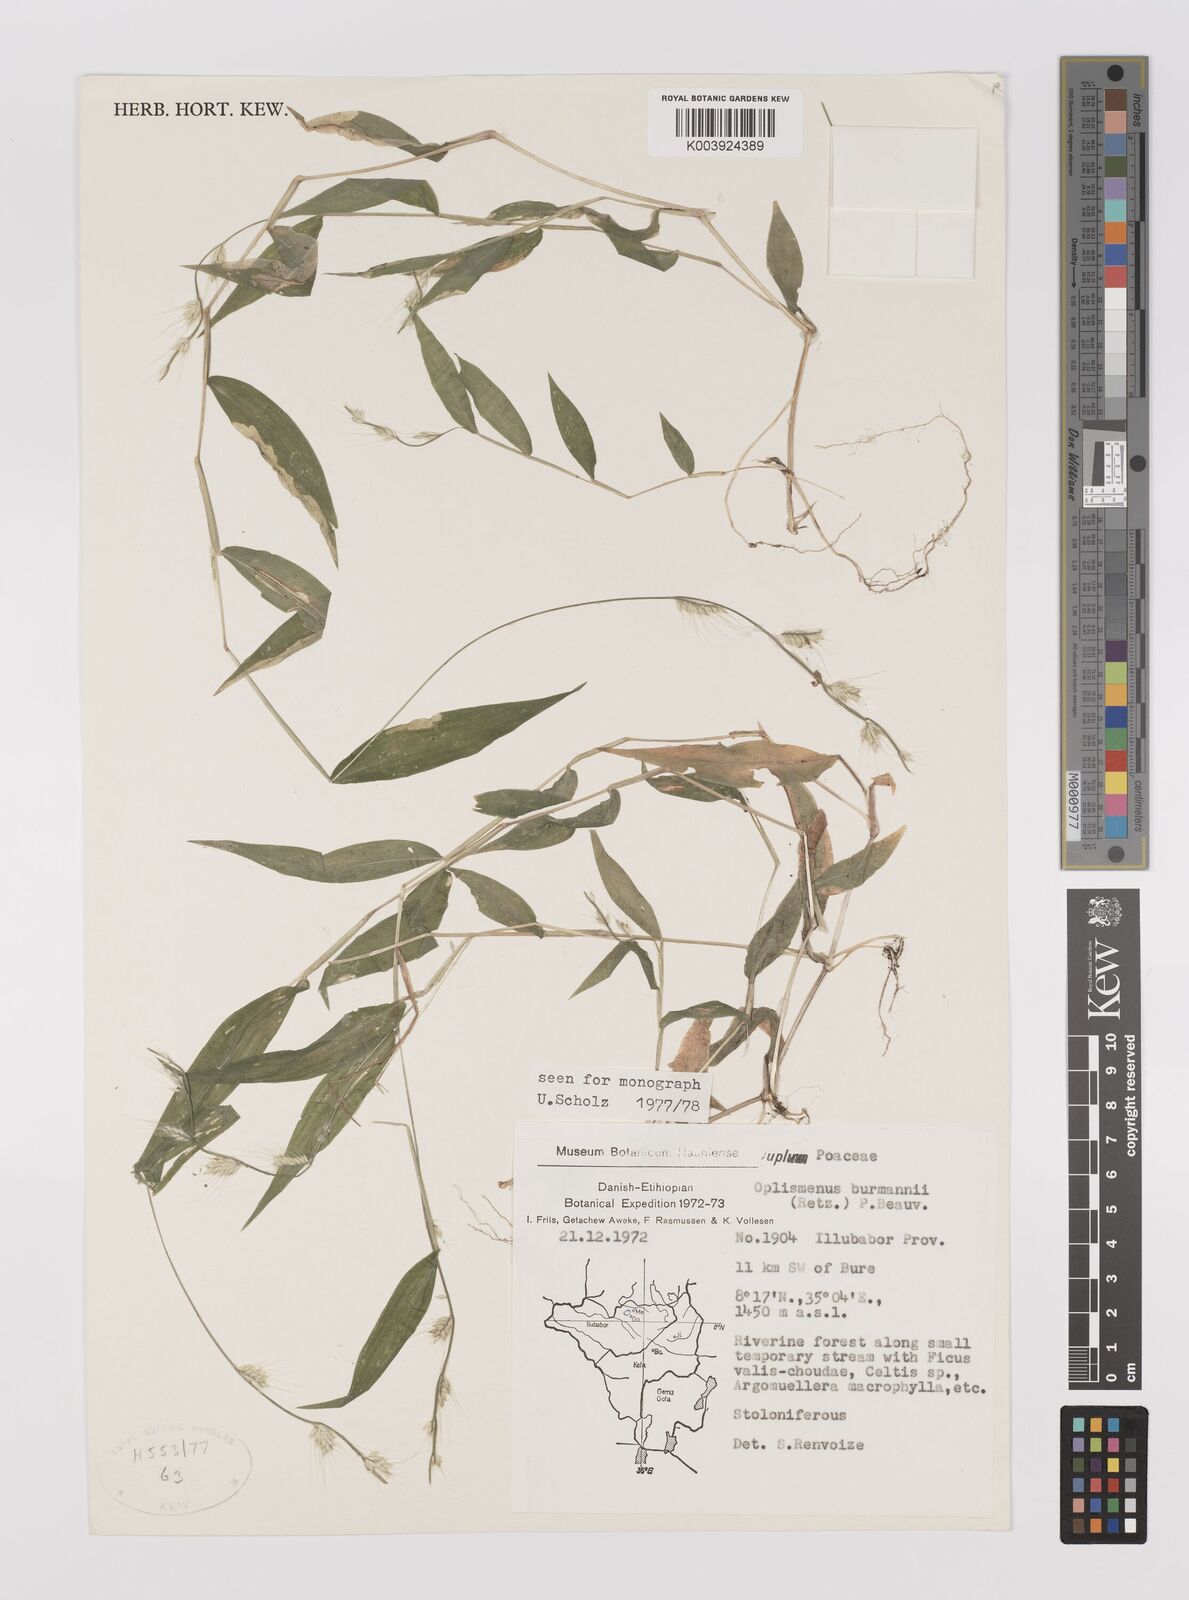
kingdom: Plantae
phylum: Tracheophyta
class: Liliopsida
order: Poales
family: Poaceae
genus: Oplismenus
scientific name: Oplismenus burmanni
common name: Burmann's basketgrass
